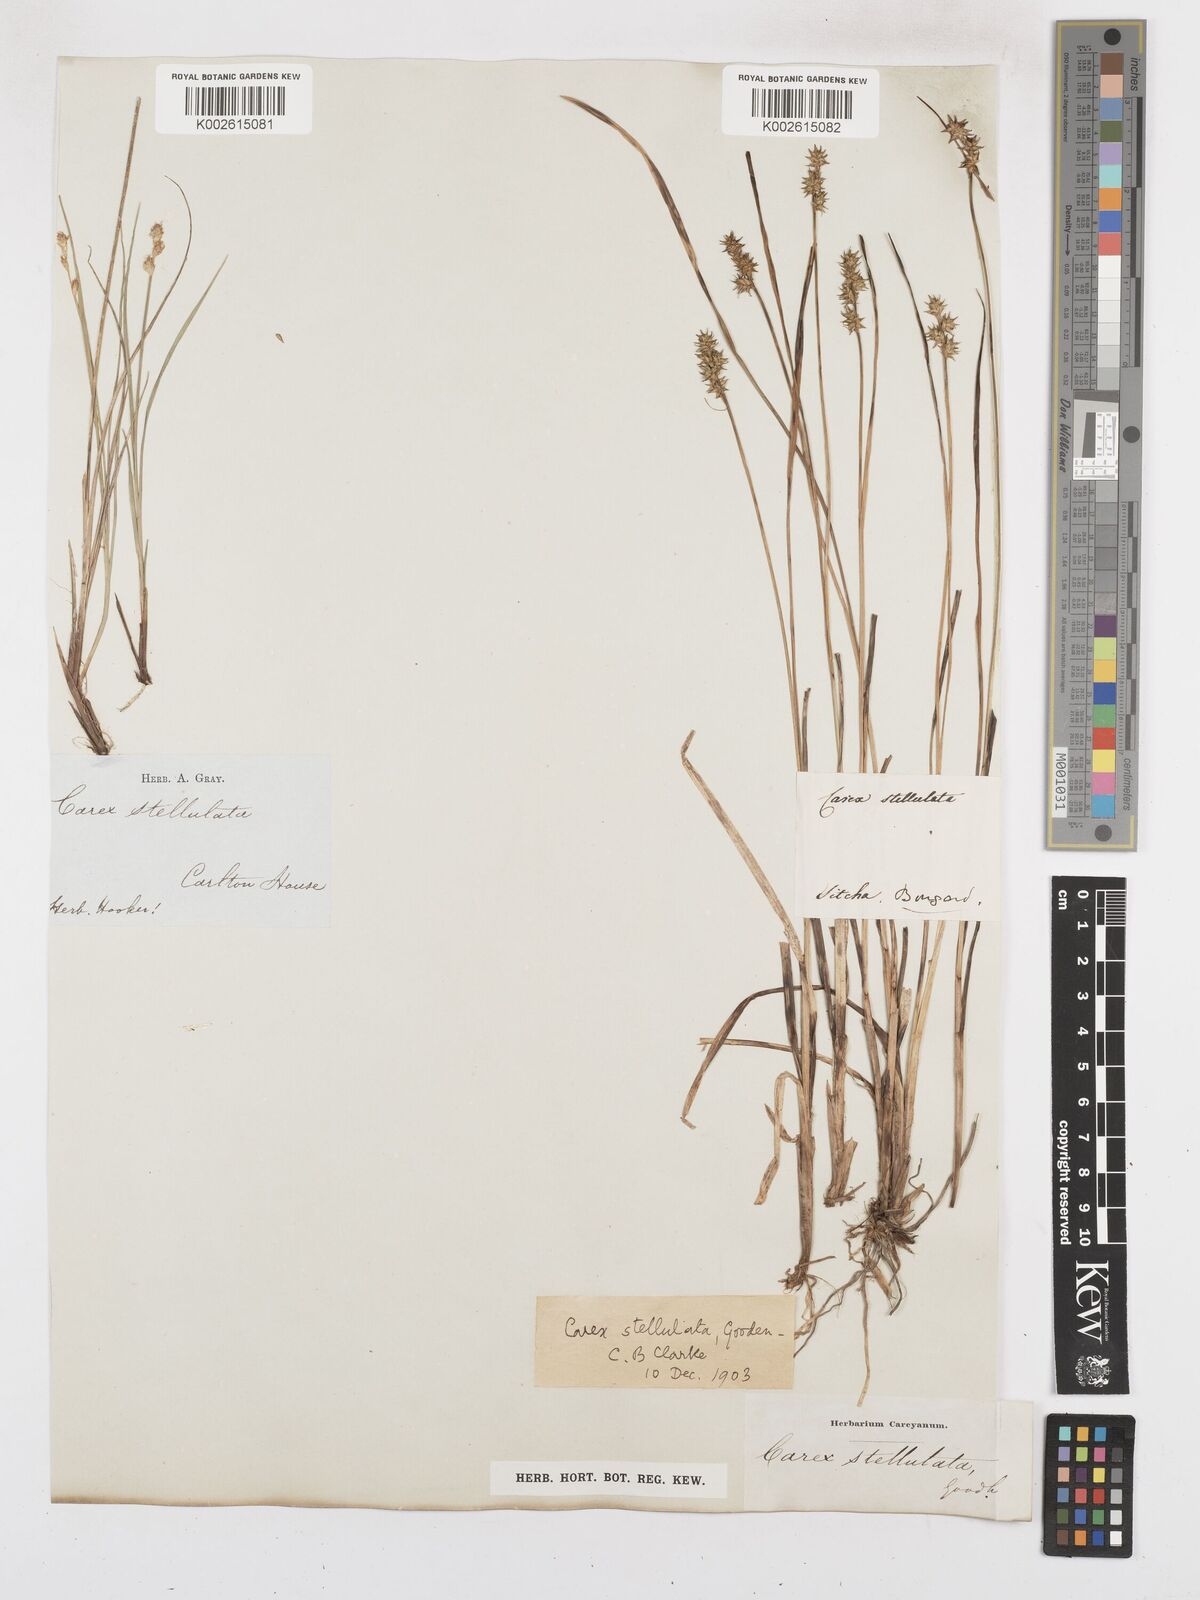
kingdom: Plantae
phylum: Tracheophyta
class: Liliopsida
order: Poales
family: Cyperaceae
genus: Carex
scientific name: Carex echinata
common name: Star sedge
